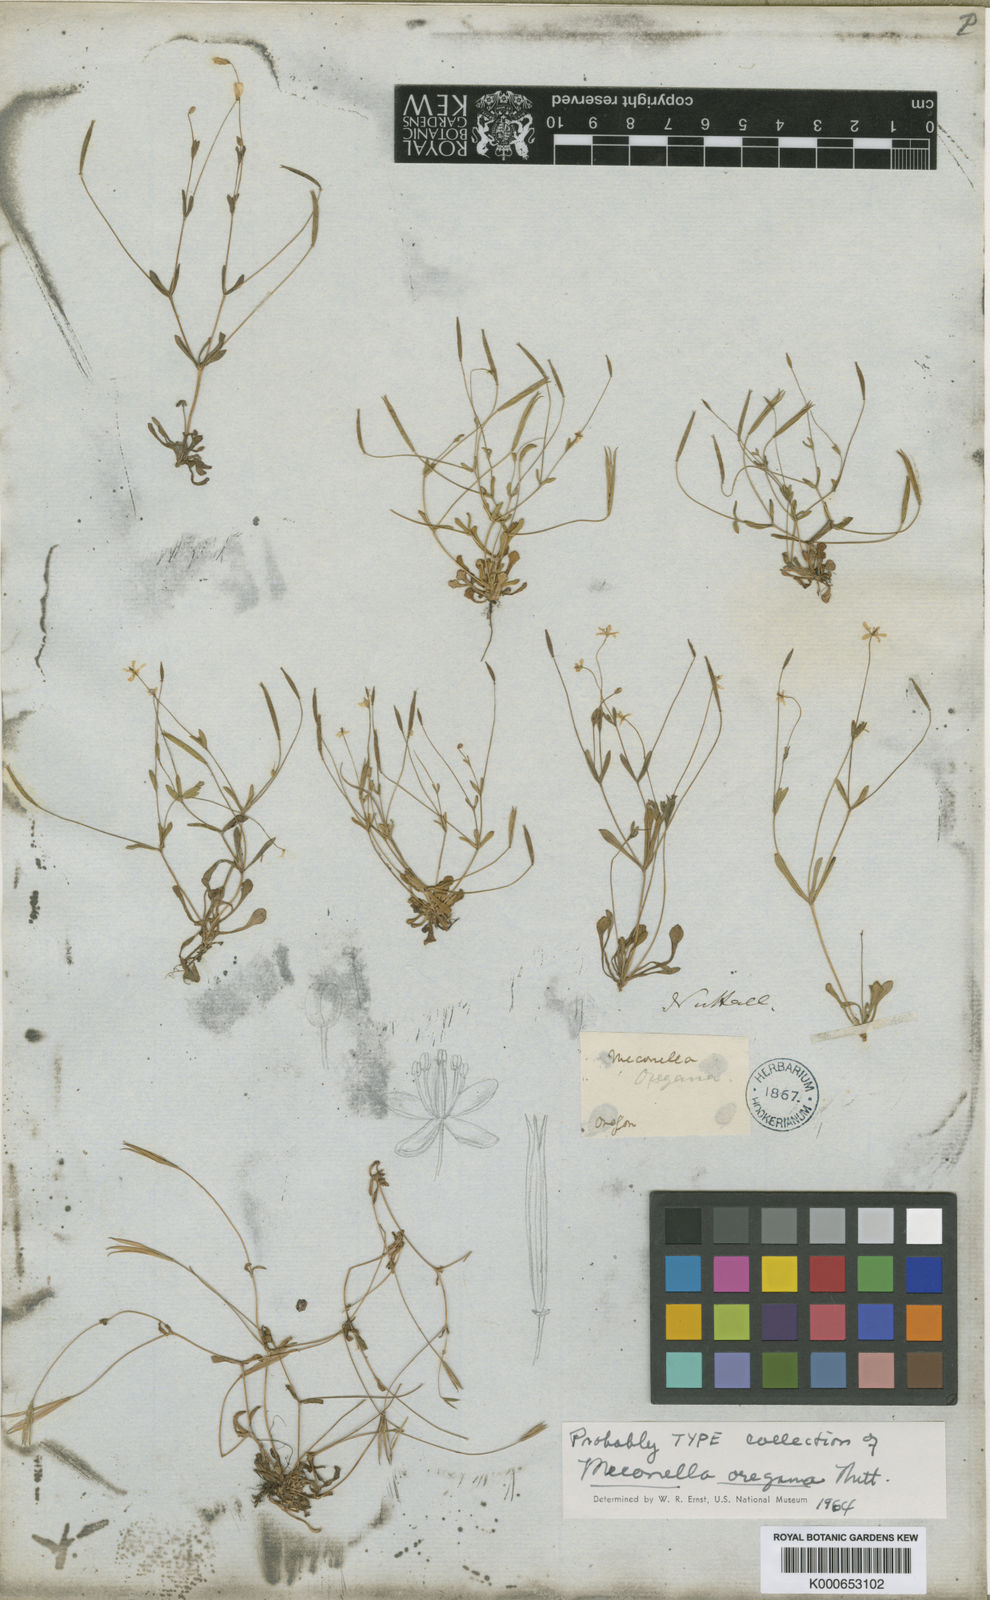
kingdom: Plantae
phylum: Tracheophyta
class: Magnoliopsida
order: Ranunculales
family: Papaveraceae
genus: Meconella
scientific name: Meconella oregana
